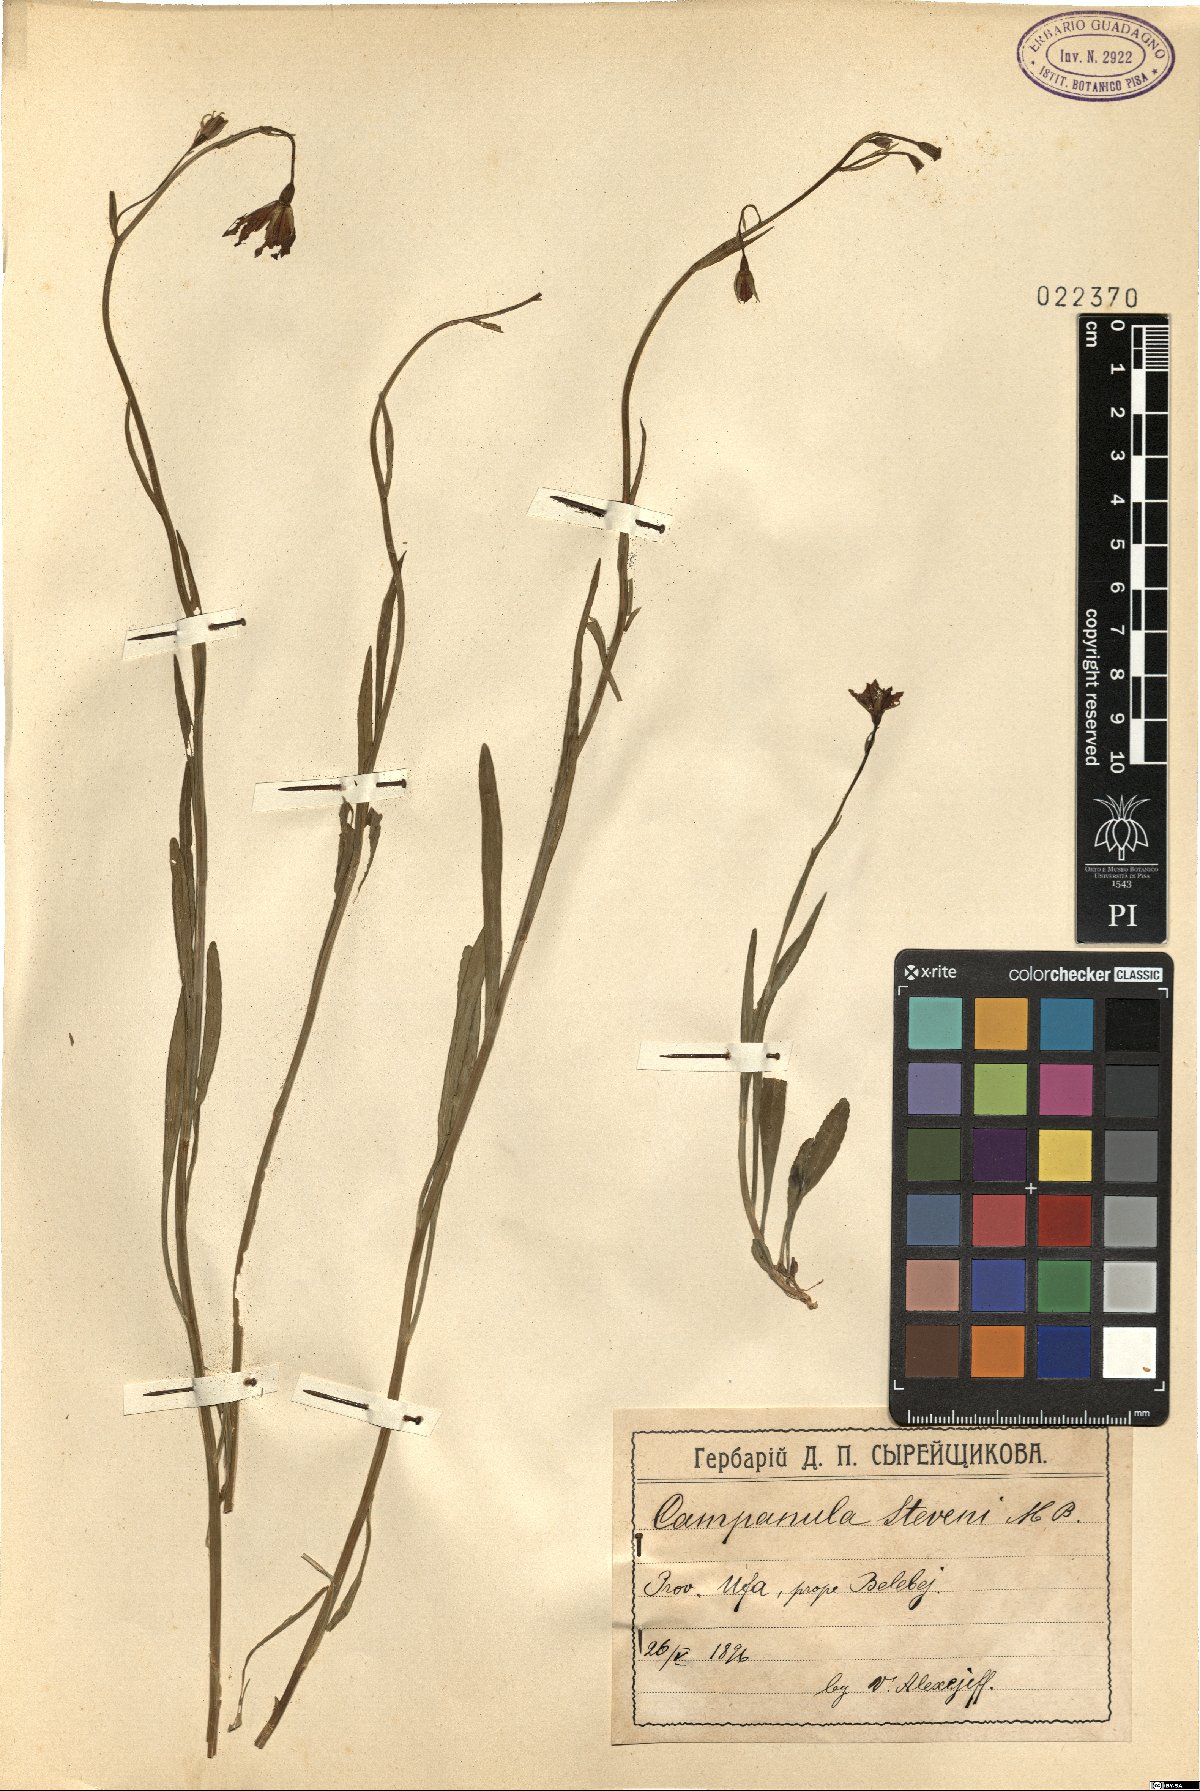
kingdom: Plantae
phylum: Tracheophyta
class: Magnoliopsida
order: Asterales
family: Campanulaceae
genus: Campanula
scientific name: Campanula stevenii
